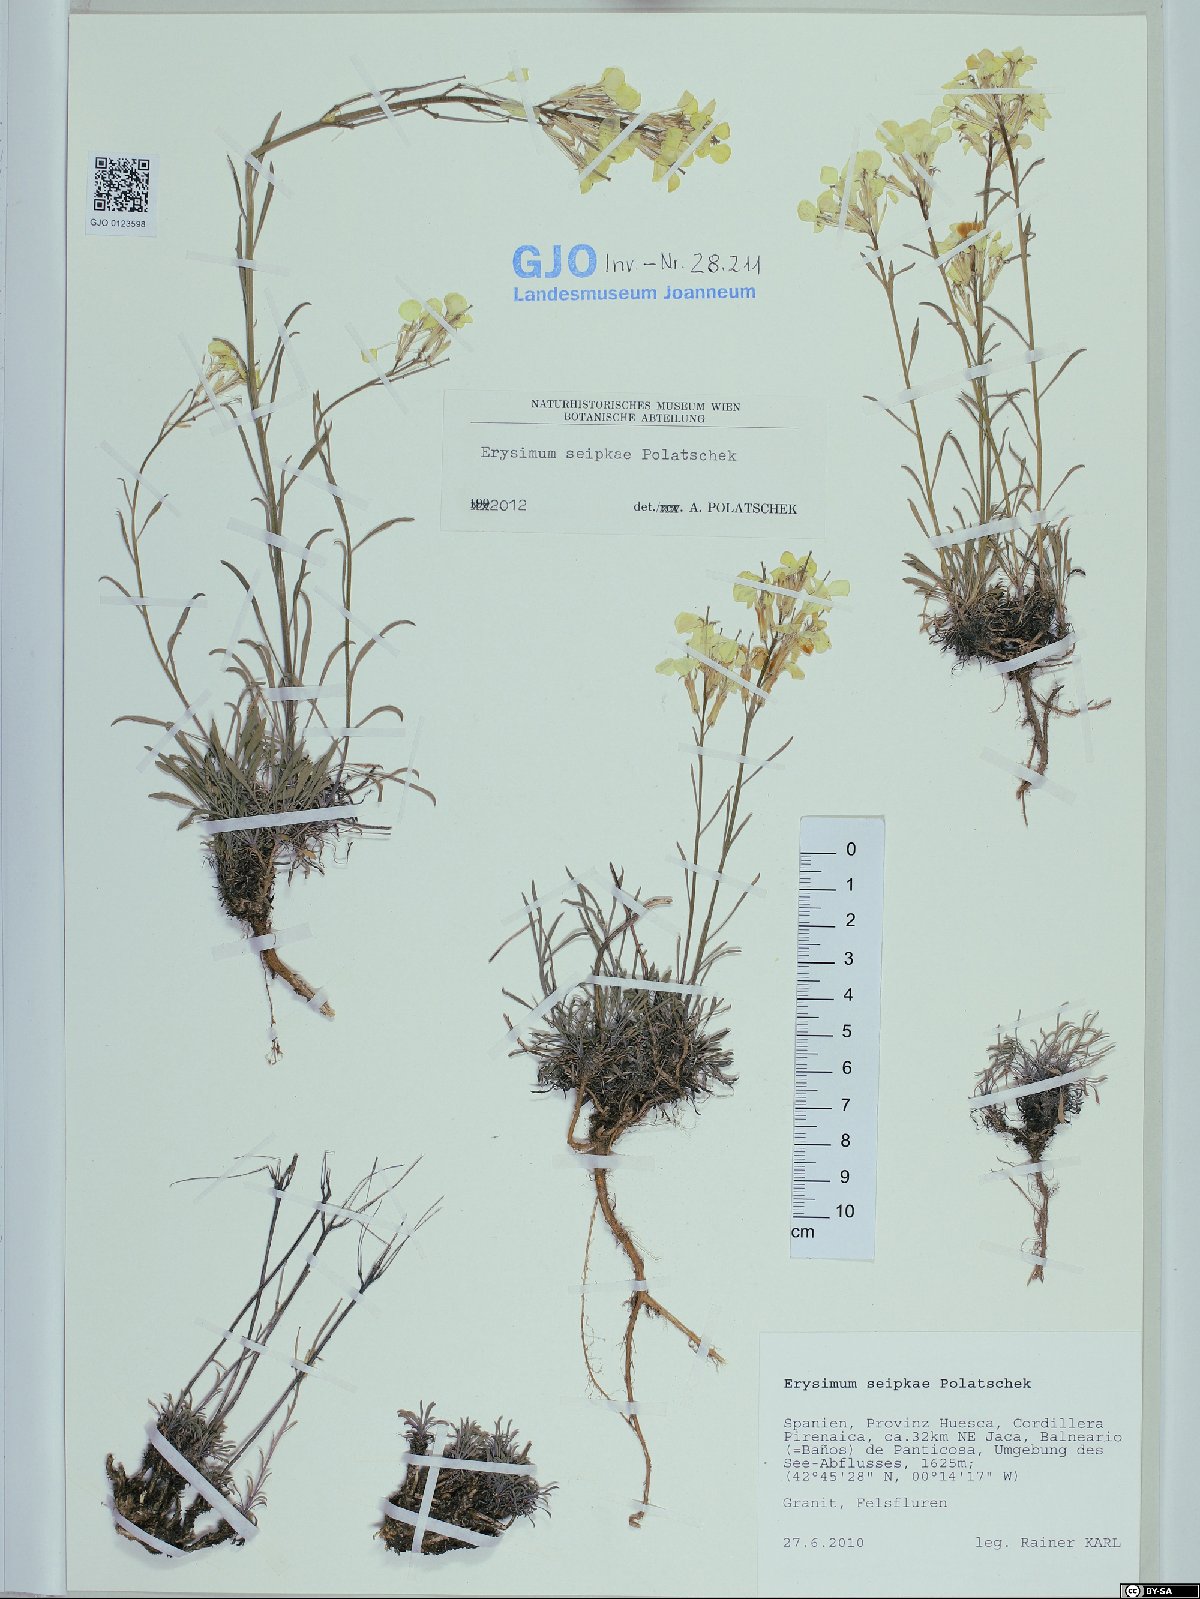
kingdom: Plantae
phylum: Tracheophyta
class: Magnoliopsida
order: Brassicales
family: Brassicaceae
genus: Erysimum
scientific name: Erysimum seipkae
